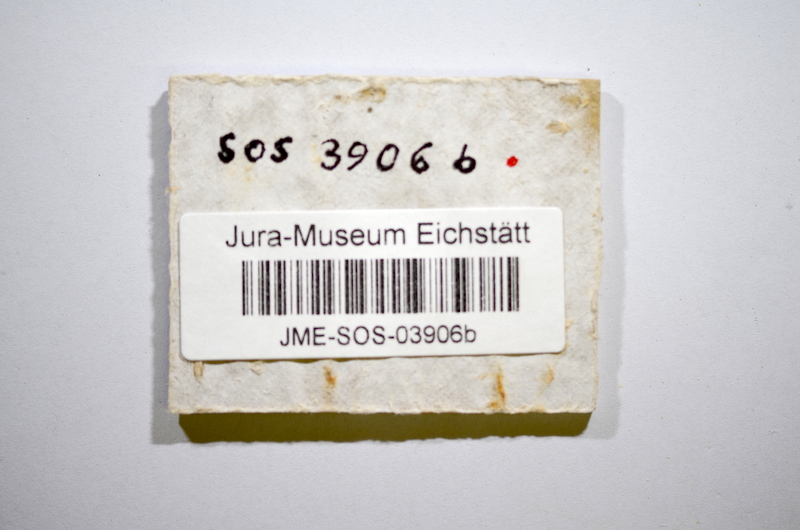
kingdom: Animalia
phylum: Chordata
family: Ascalaboidae
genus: Tharsis
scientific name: Tharsis dubius
